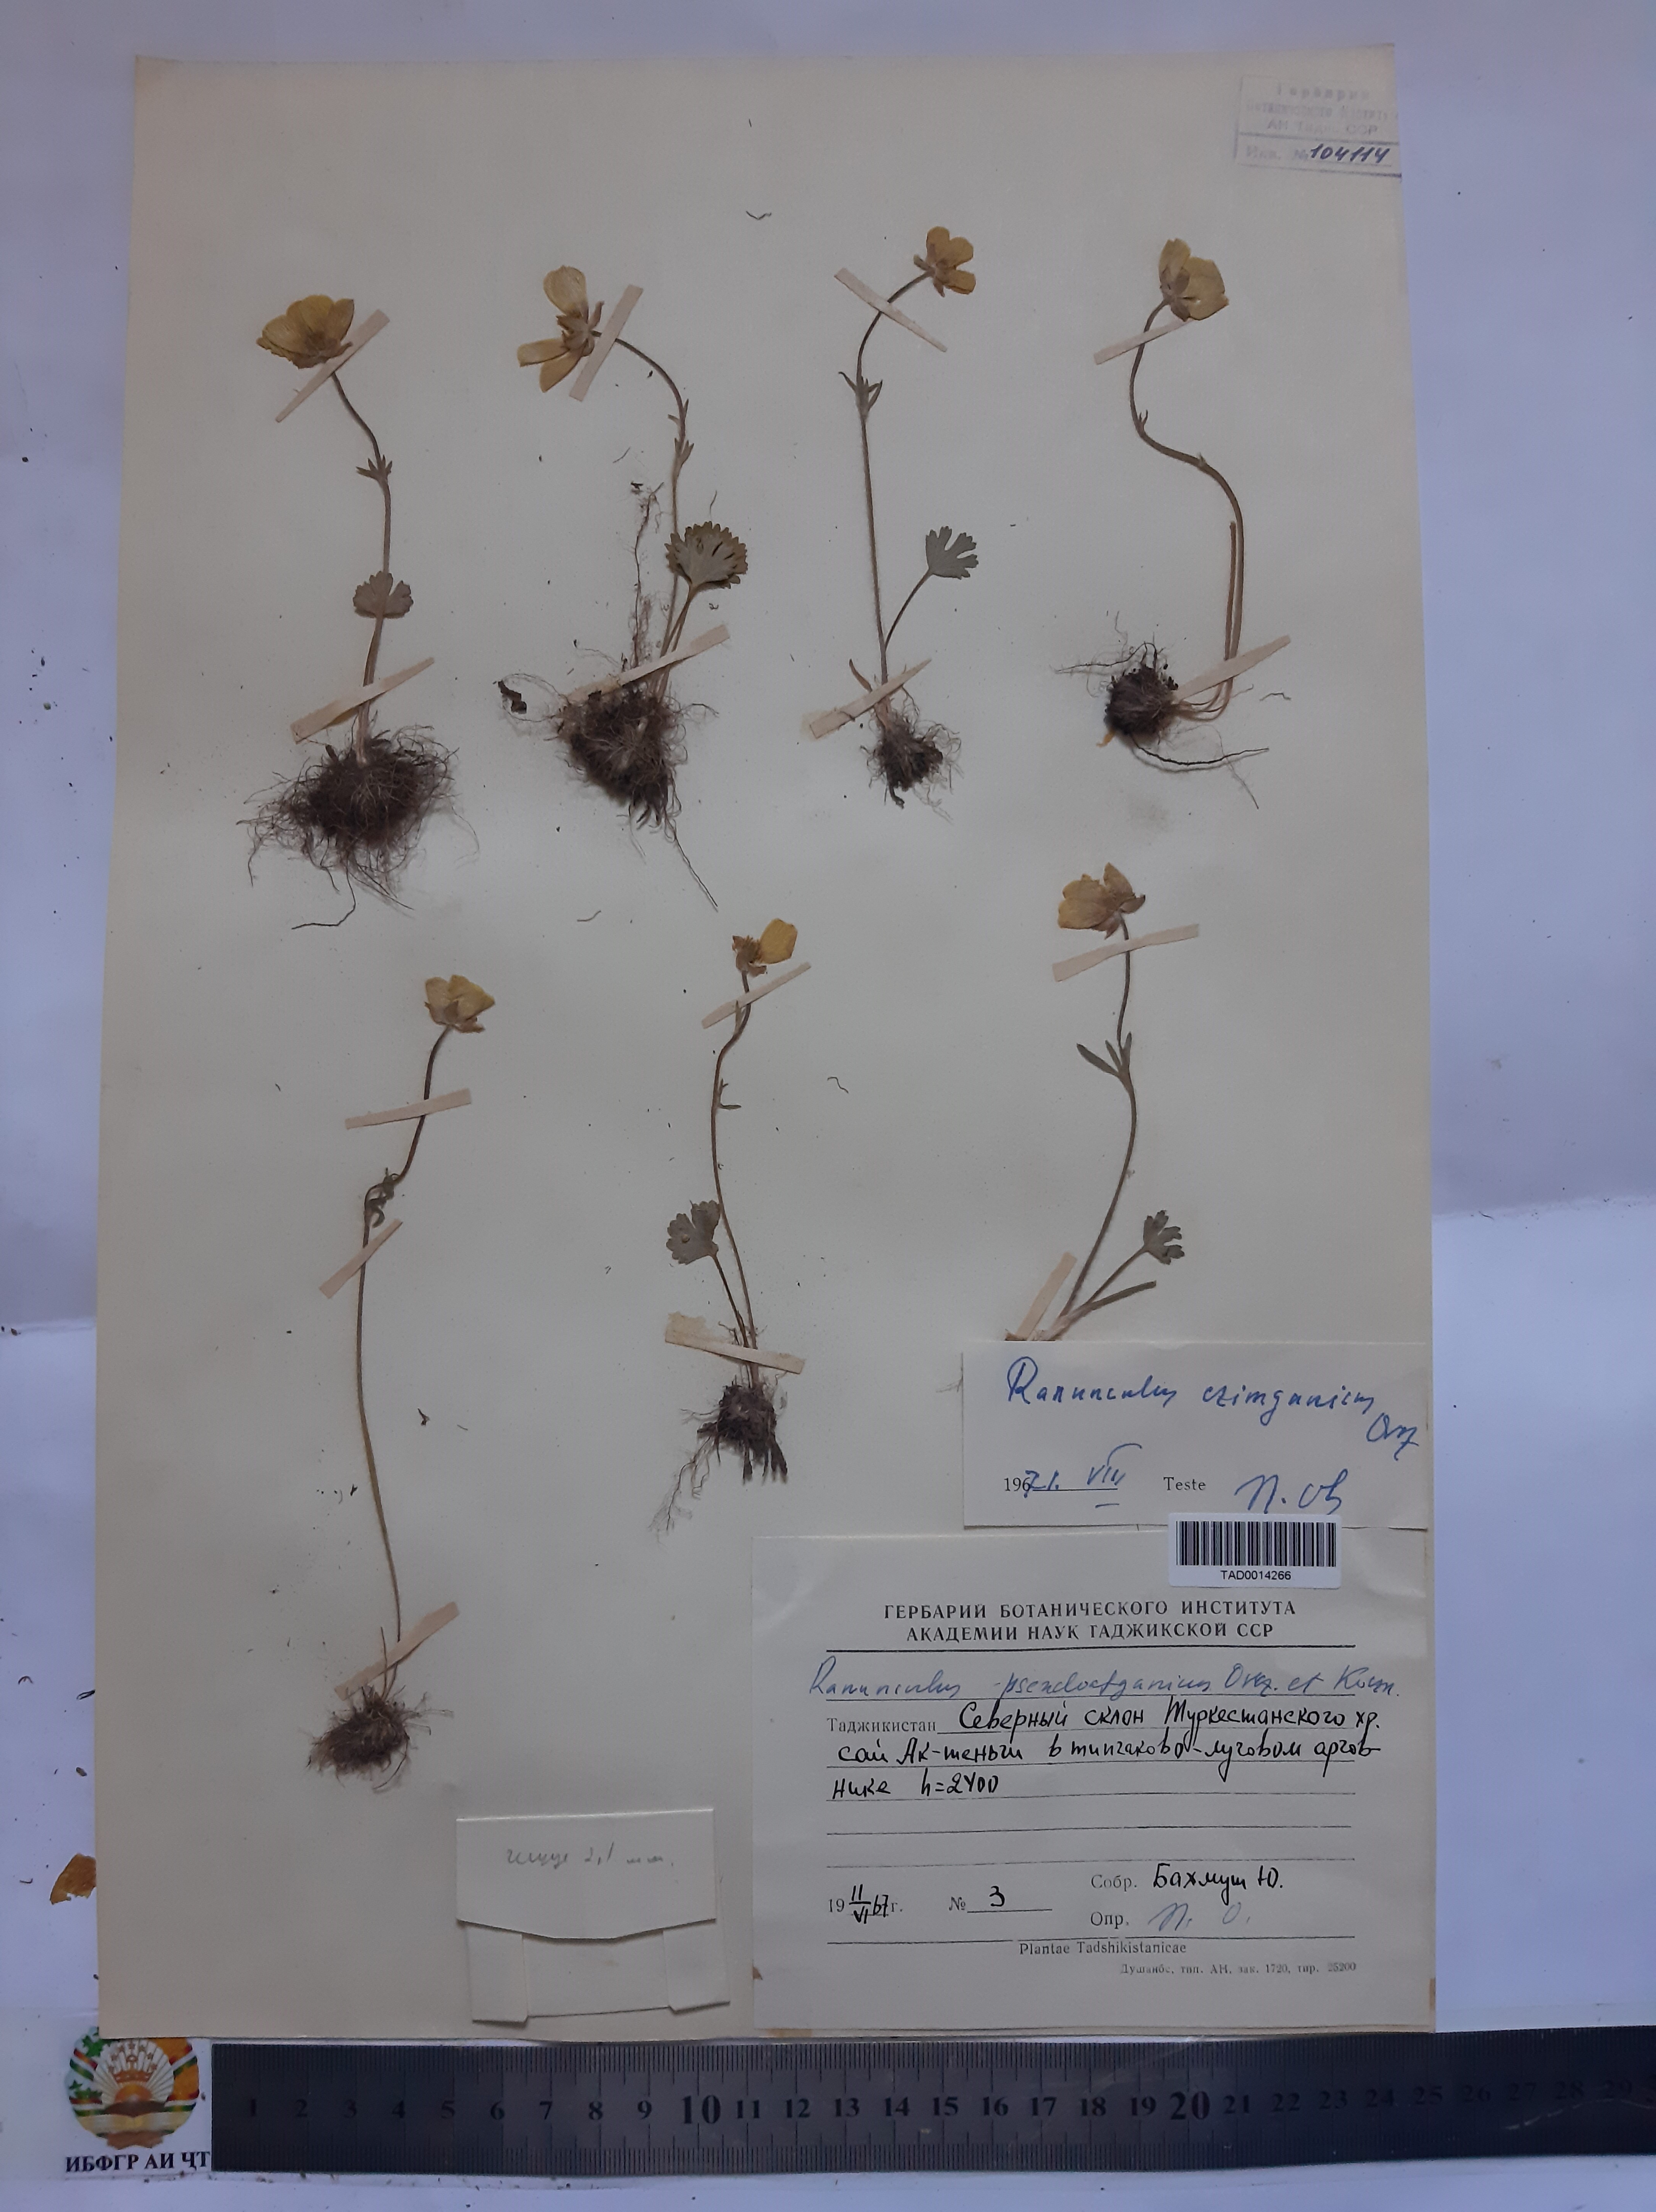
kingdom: Plantae
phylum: Tracheophyta
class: Magnoliopsida
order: Ranunculales
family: Ranunculaceae
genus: Ranunculus
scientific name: Ranunculus czimganicus
